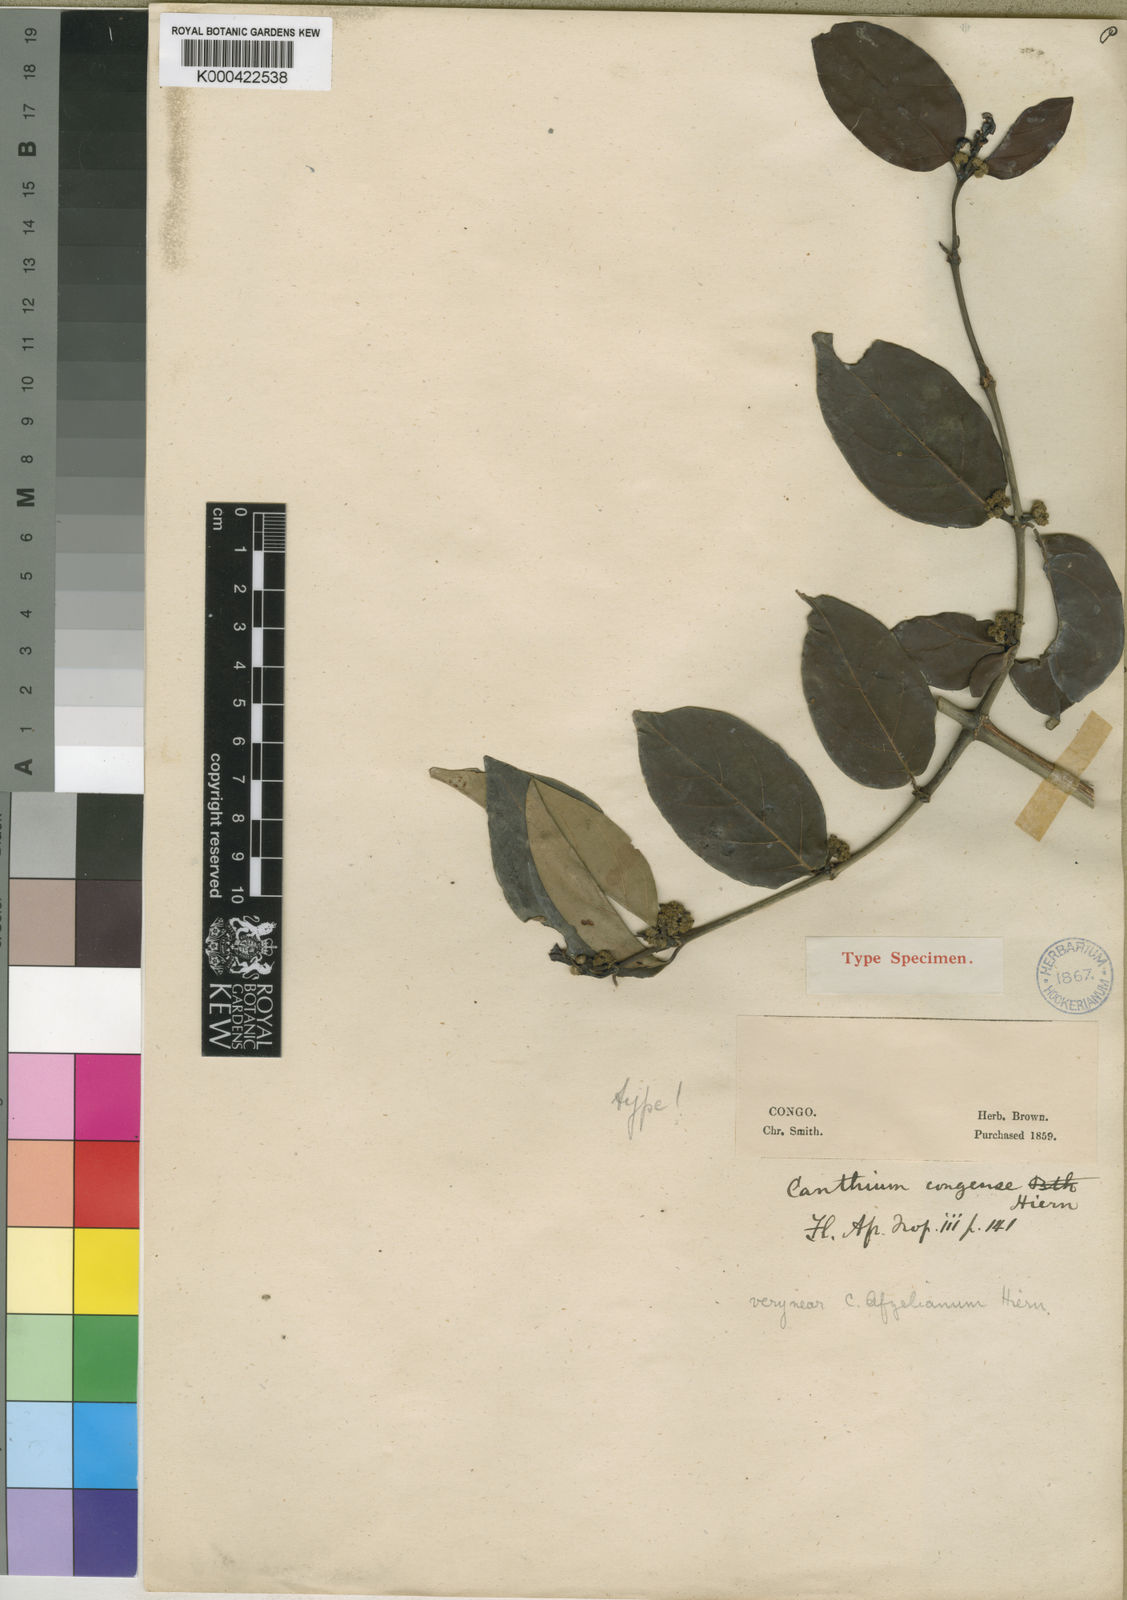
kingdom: Plantae
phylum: Tracheophyta
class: Magnoliopsida
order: Gentianales
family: Rubiaceae
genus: Keetia
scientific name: Keetia gracilis
